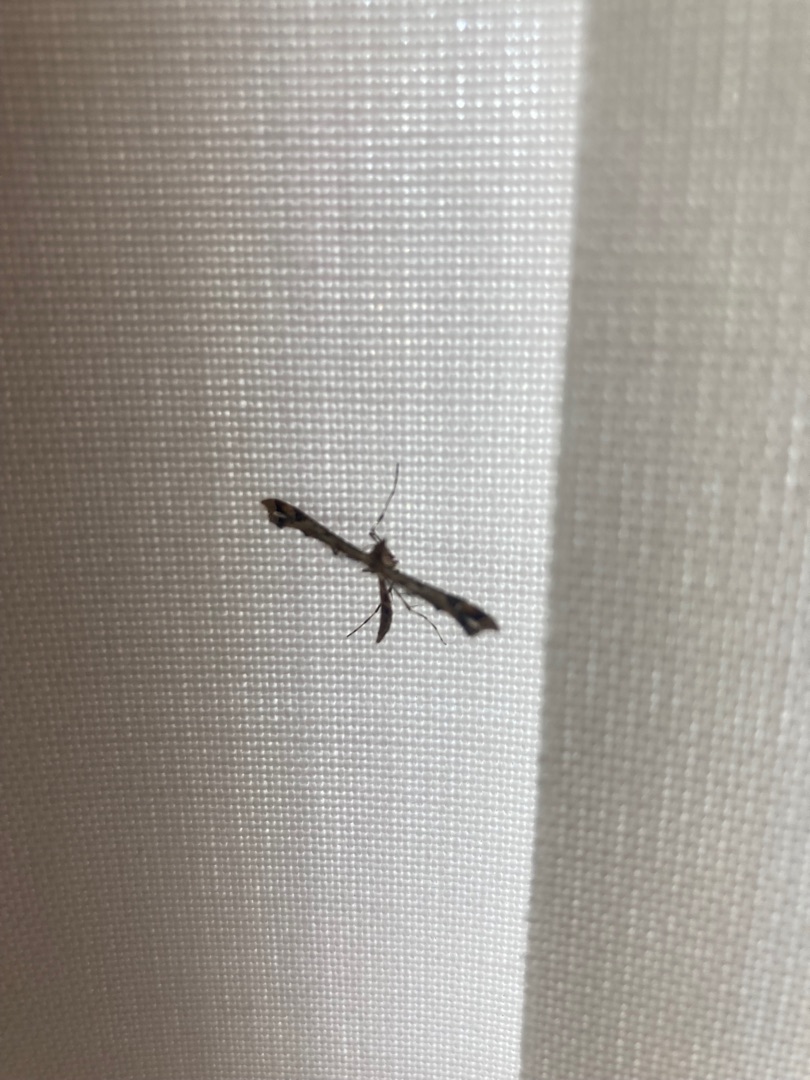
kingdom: Animalia
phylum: Arthropoda
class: Insecta
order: Lepidoptera
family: Pterophoridae
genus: Amblyptilia
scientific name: Amblyptilia acanthadactyla
